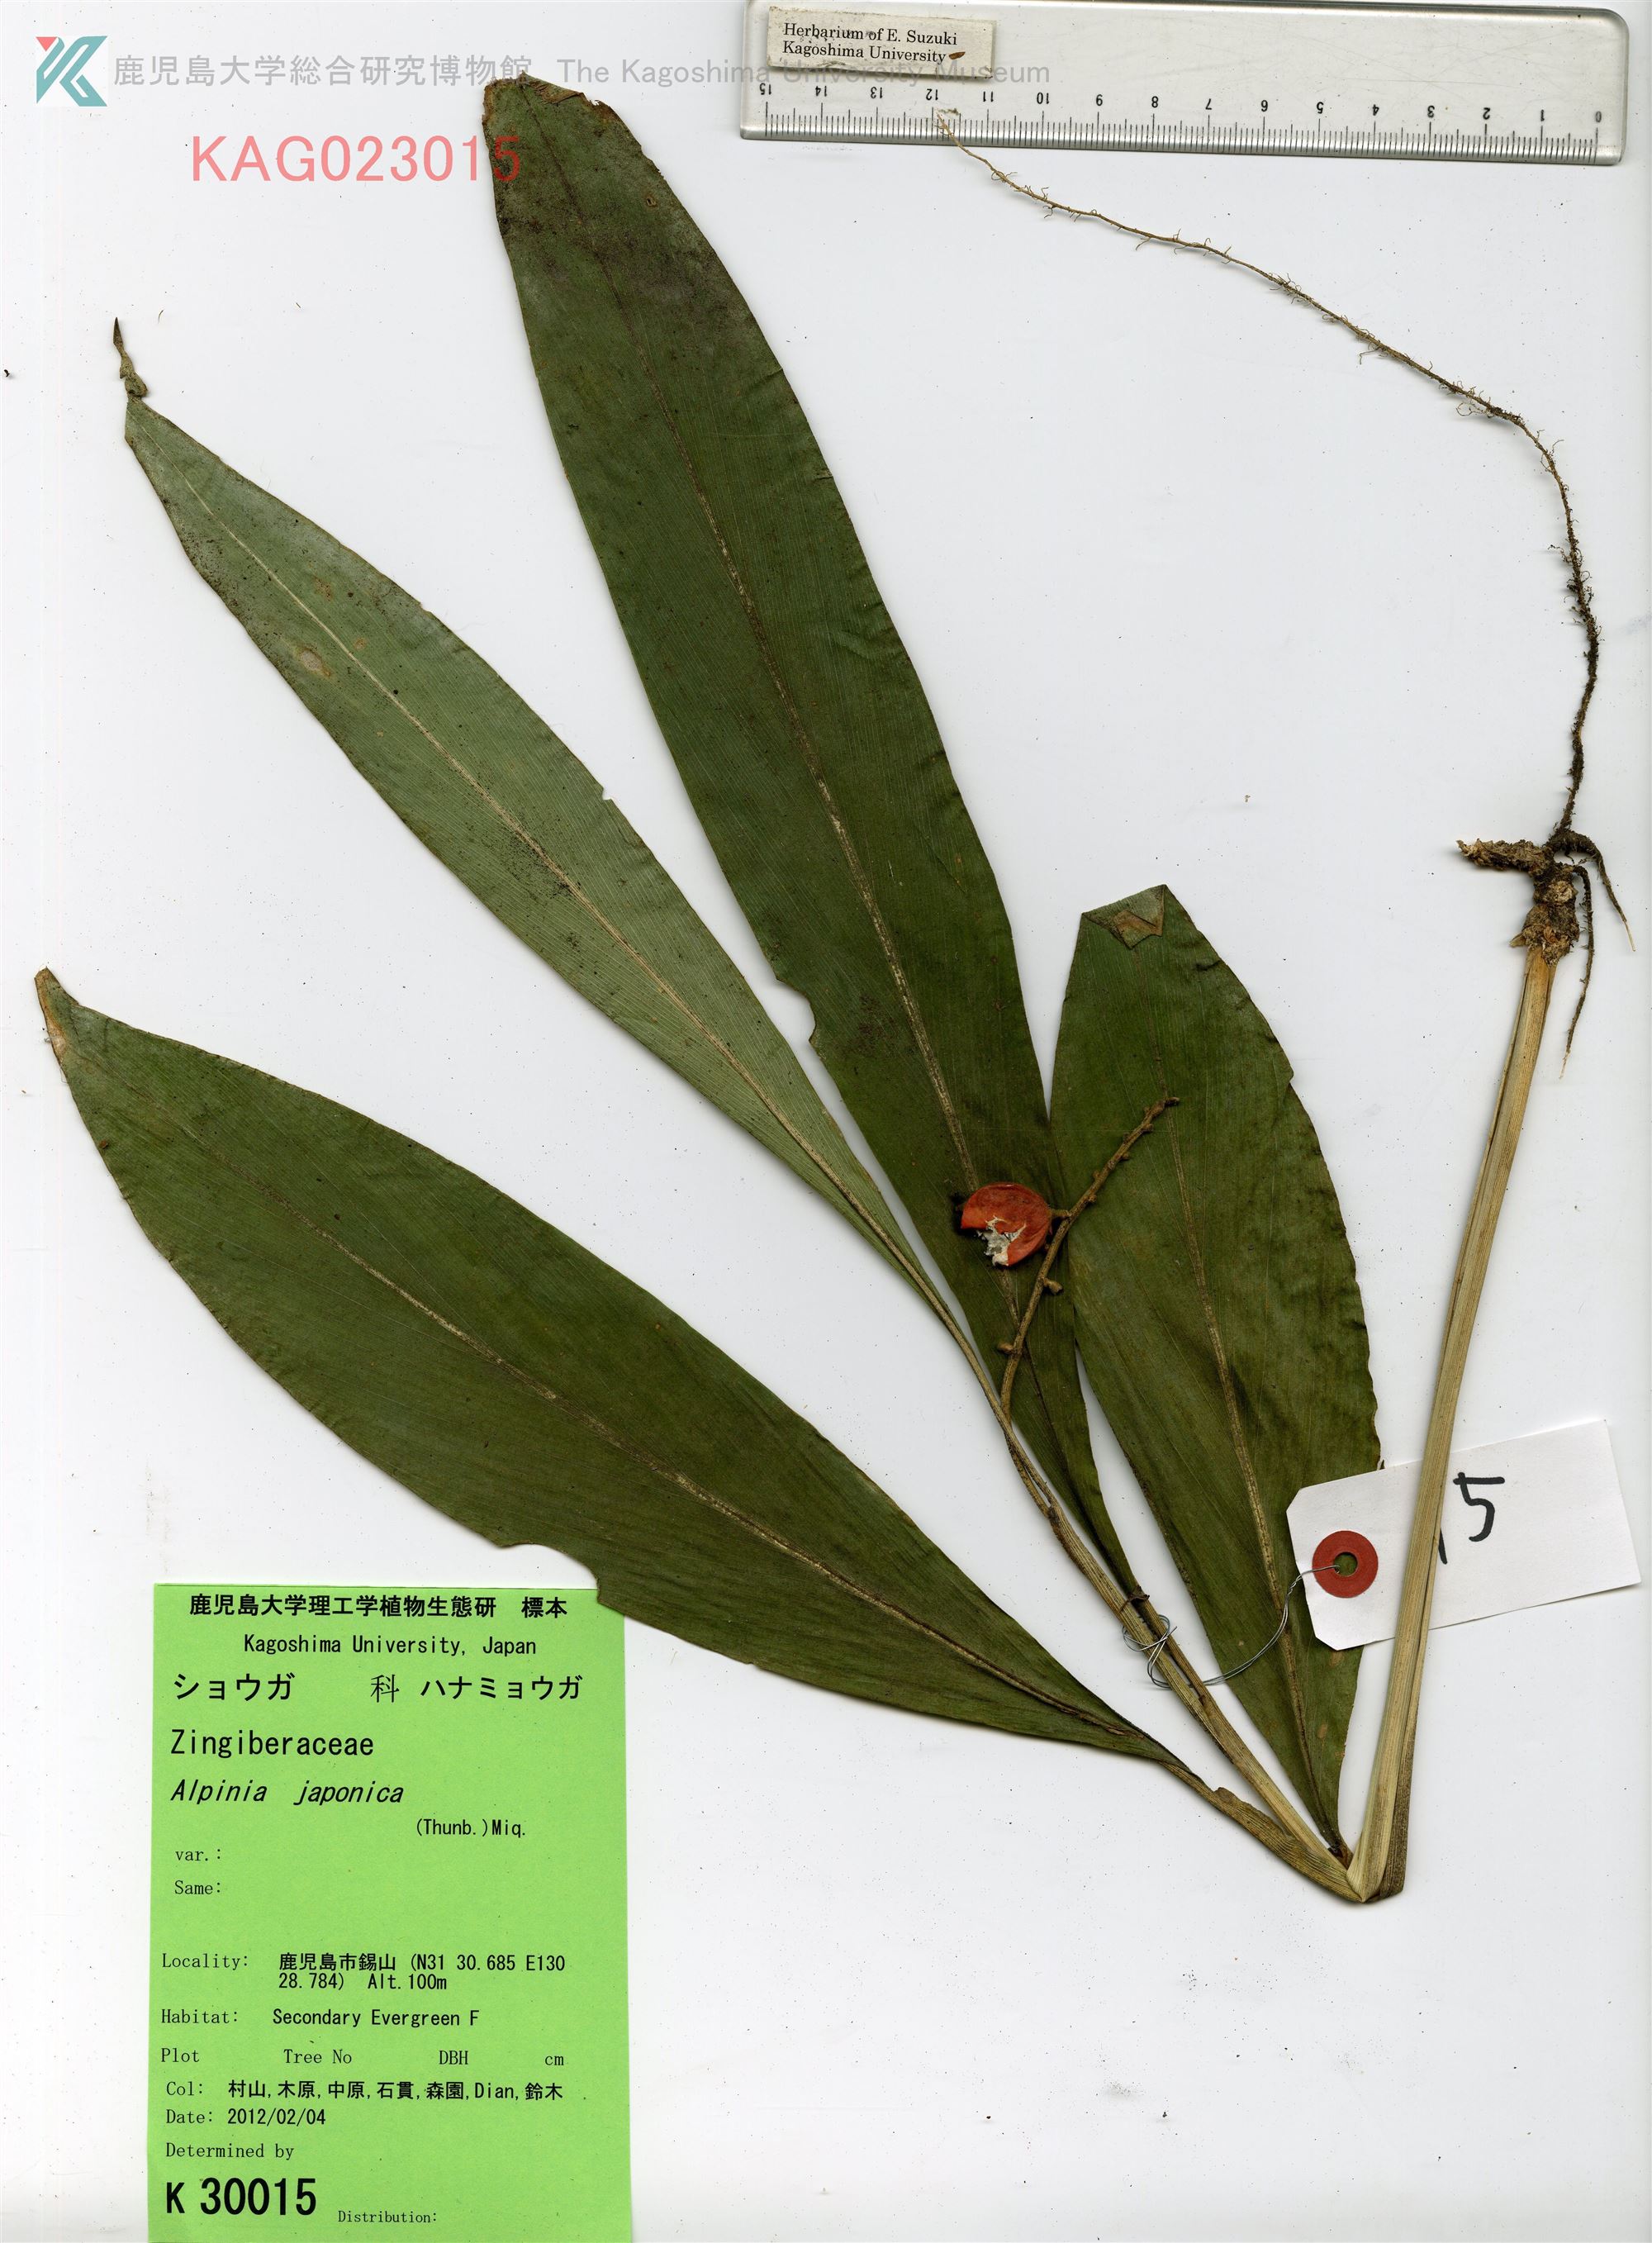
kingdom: Plantae
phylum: Tracheophyta
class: Liliopsida
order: Zingiberales
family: Zingiberaceae
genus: Alpinia
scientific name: Alpinia japonica
